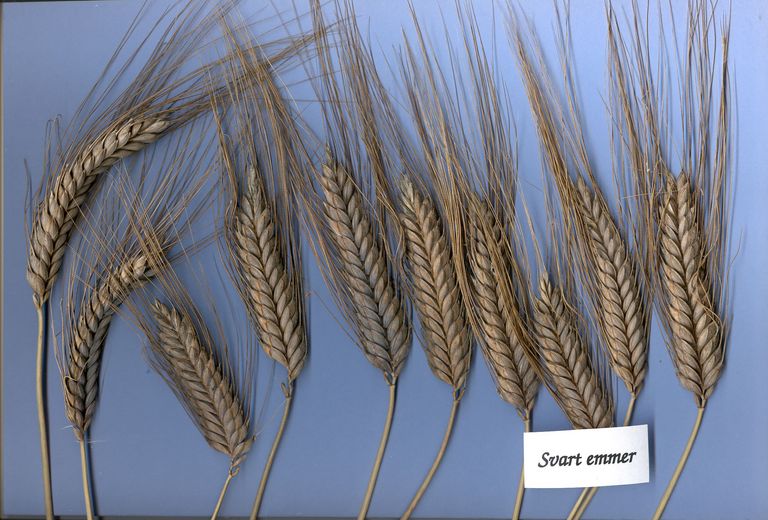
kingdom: Plantae
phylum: Tracheophyta
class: Liliopsida
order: Poales
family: Poaceae
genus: Triticum
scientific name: Triticum turgidum
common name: Rivet wheat
